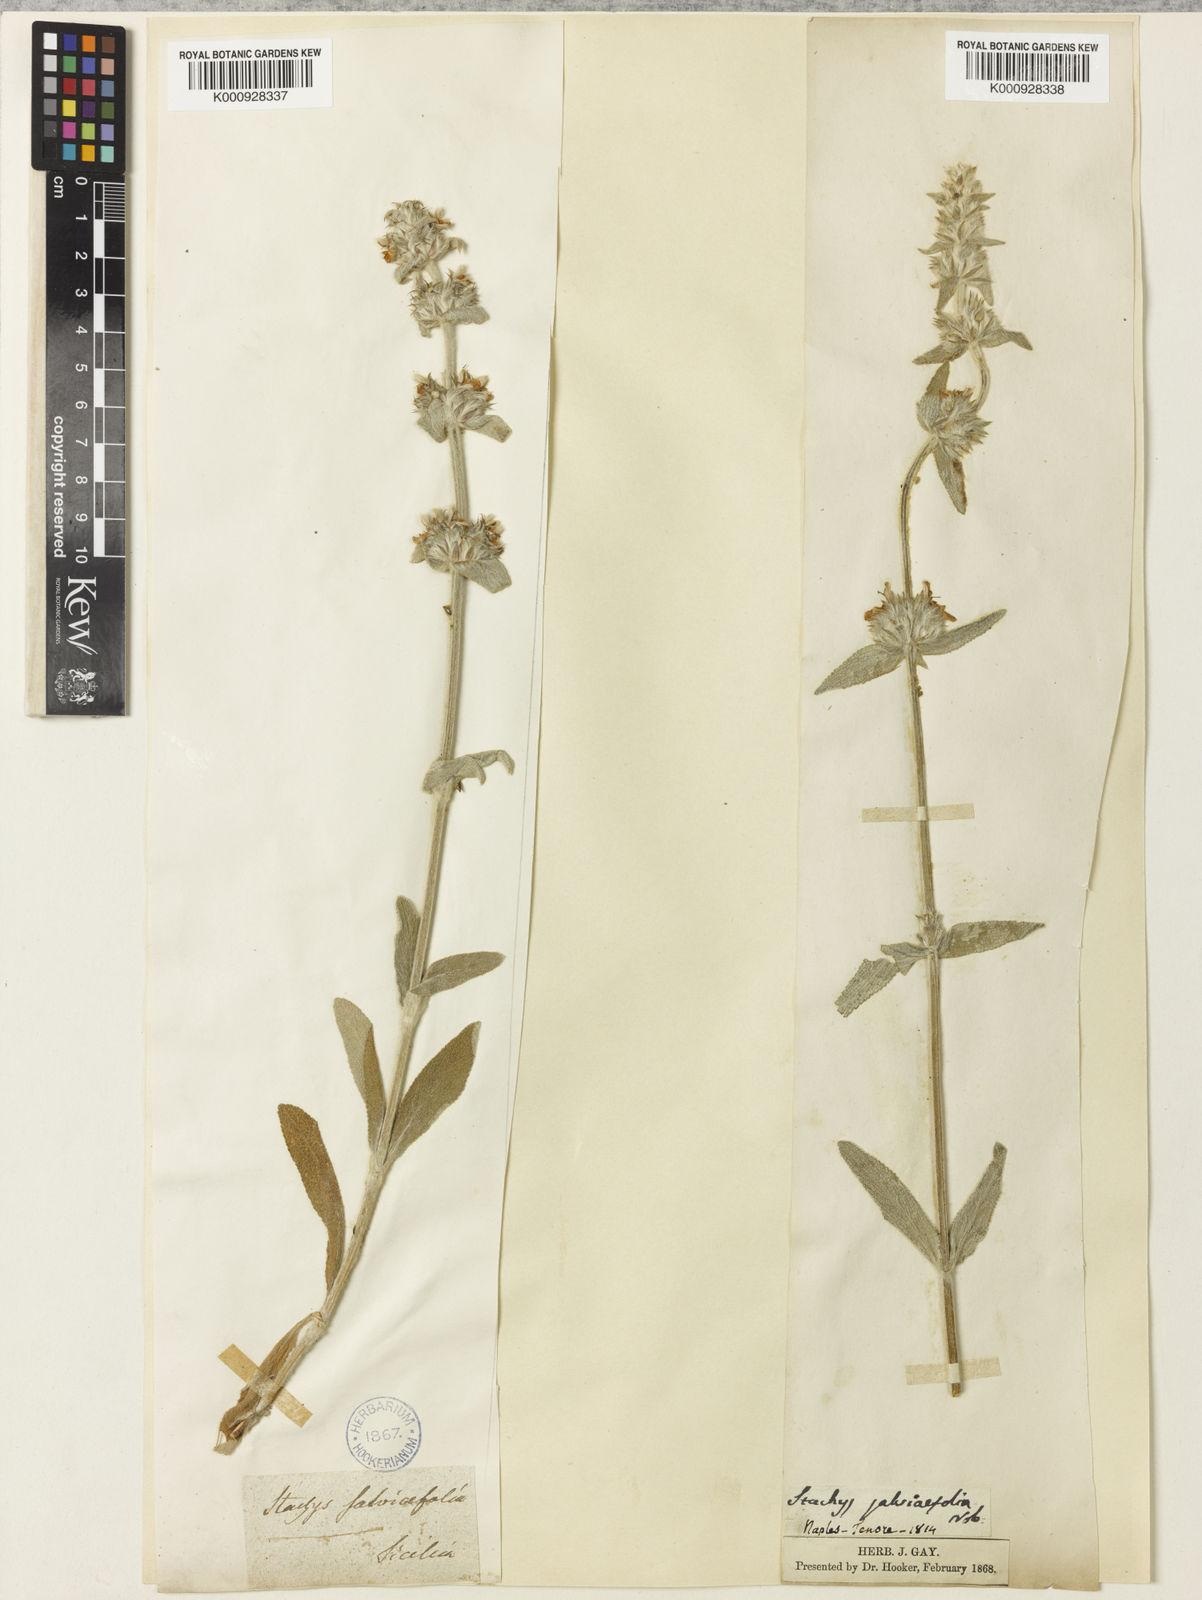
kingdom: Plantae
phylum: Tracheophyta
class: Magnoliopsida
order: Lamiales
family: Lamiaceae
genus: Stachys
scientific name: Stachys cretica
